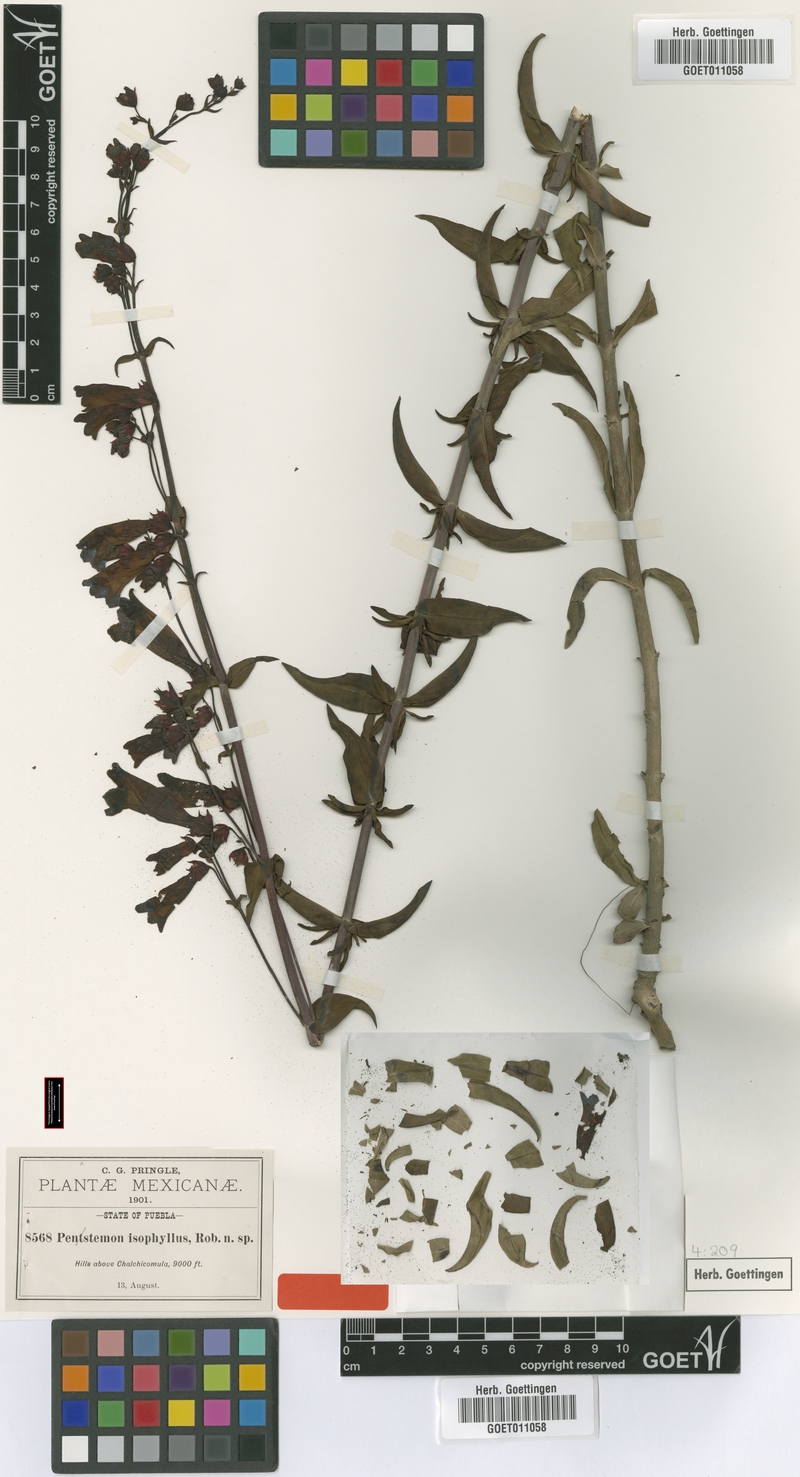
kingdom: Plantae
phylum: Tracheophyta
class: Magnoliopsida
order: Lamiales
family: Plantaginaceae
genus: Penstemon
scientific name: Penstemon isophyllus
